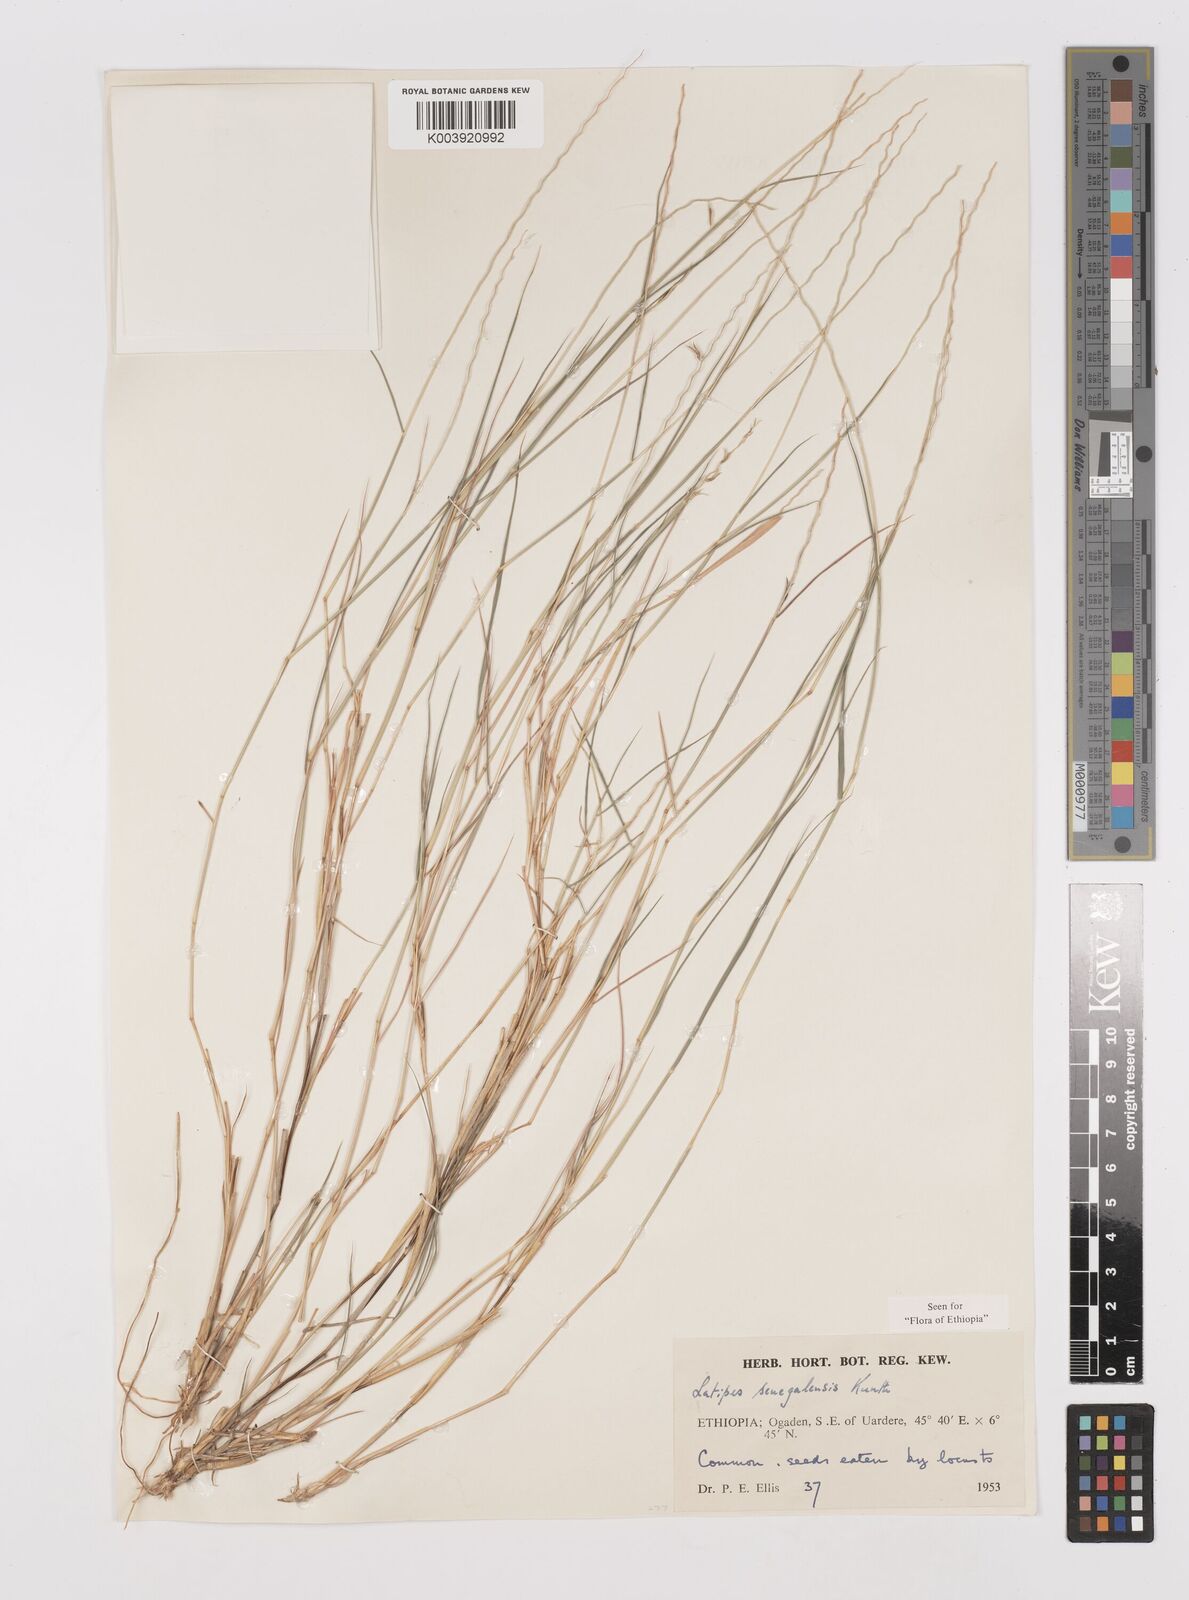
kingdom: Plantae
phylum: Tracheophyta
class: Liliopsida
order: Poales
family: Poaceae
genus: Leptothrium
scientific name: Leptothrium senegalense
